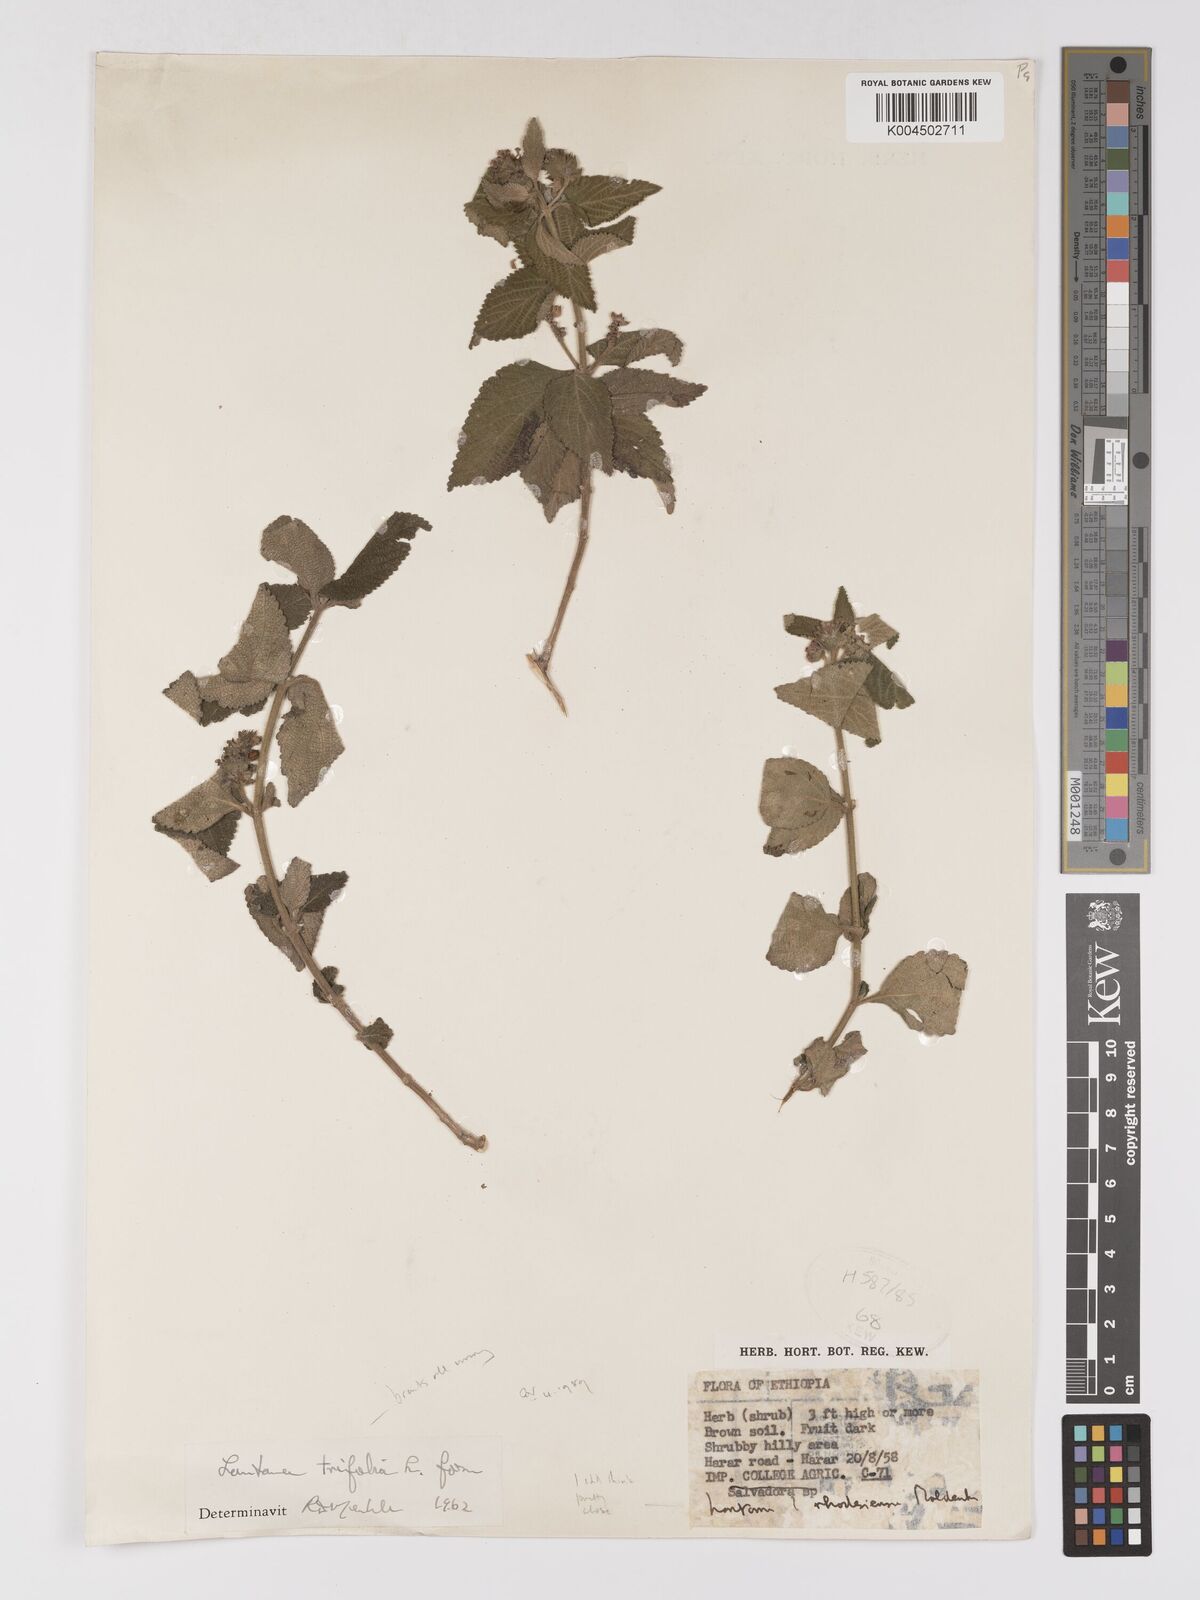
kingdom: Plantae
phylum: Tracheophyta
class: Magnoliopsida
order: Lamiales
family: Verbenaceae
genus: Lantana
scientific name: Lantana ukambensis
